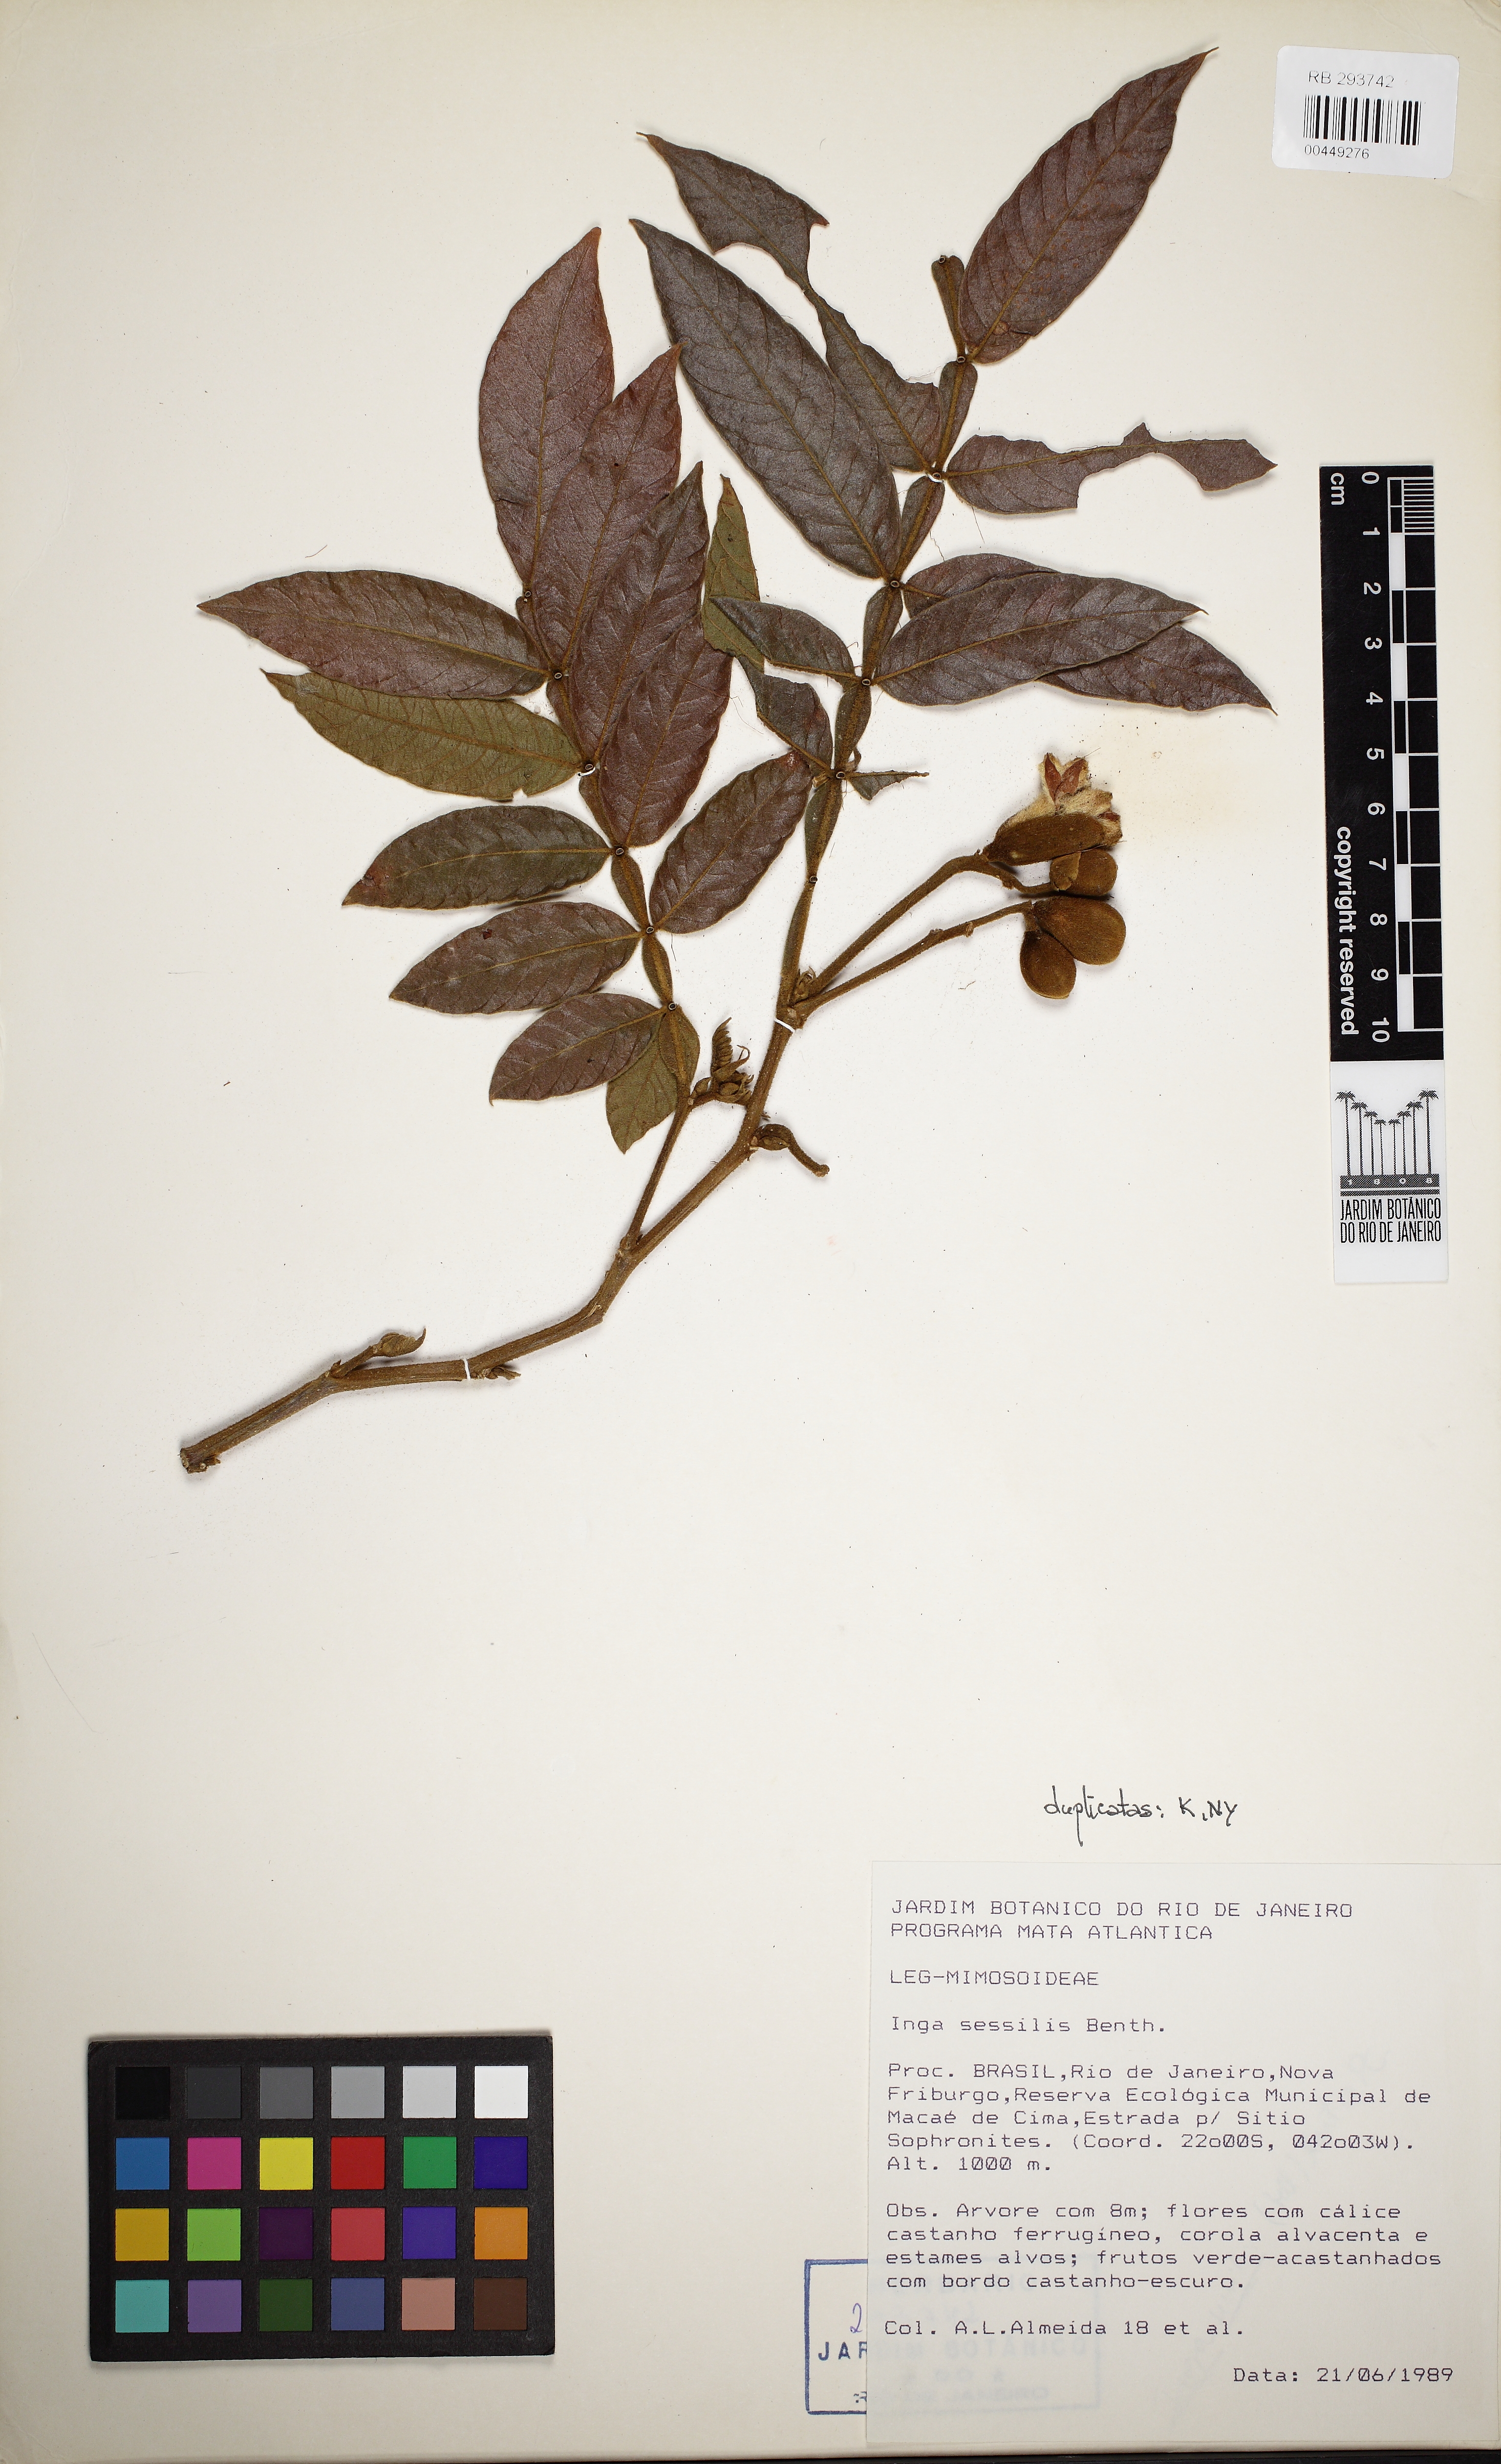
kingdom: Plantae
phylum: Tracheophyta
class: Magnoliopsida
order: Fabales
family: Fabaceae
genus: Inga
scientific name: Inga sessilis
